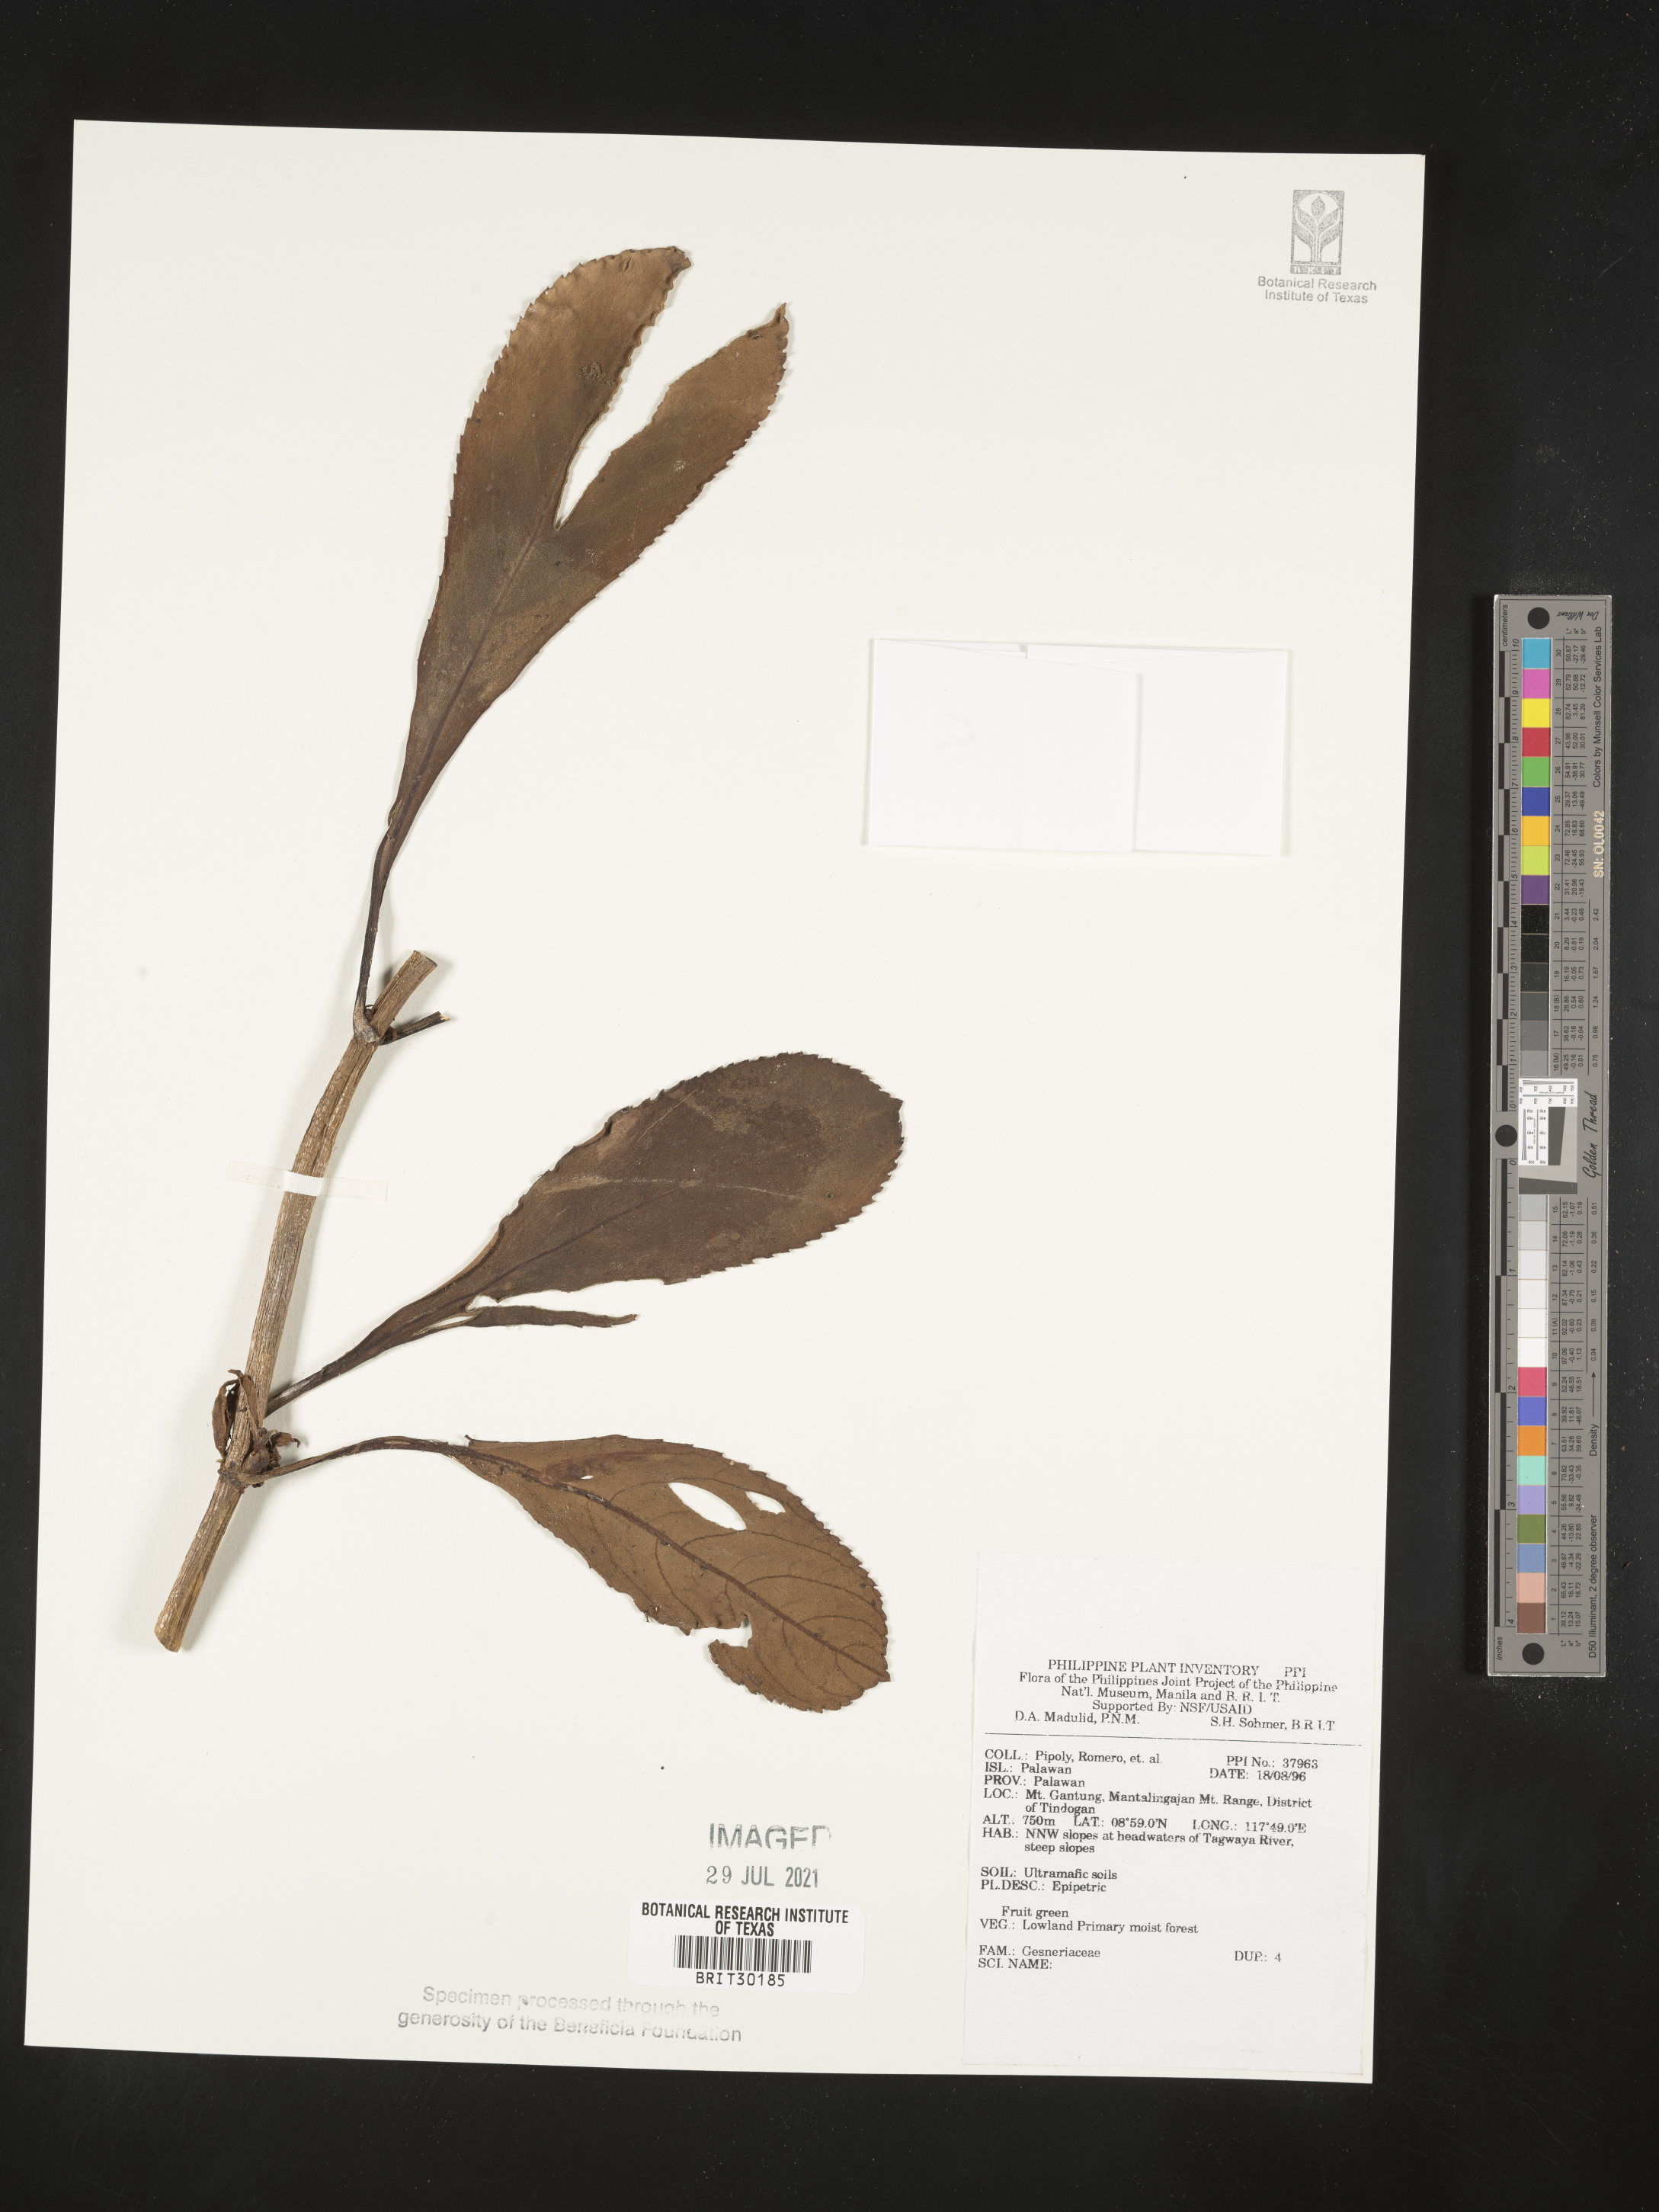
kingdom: Plantae
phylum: Tracheophyta
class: Magnoliopsida
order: Lamiales
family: Gesneriaceae
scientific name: Gesneriaceae
